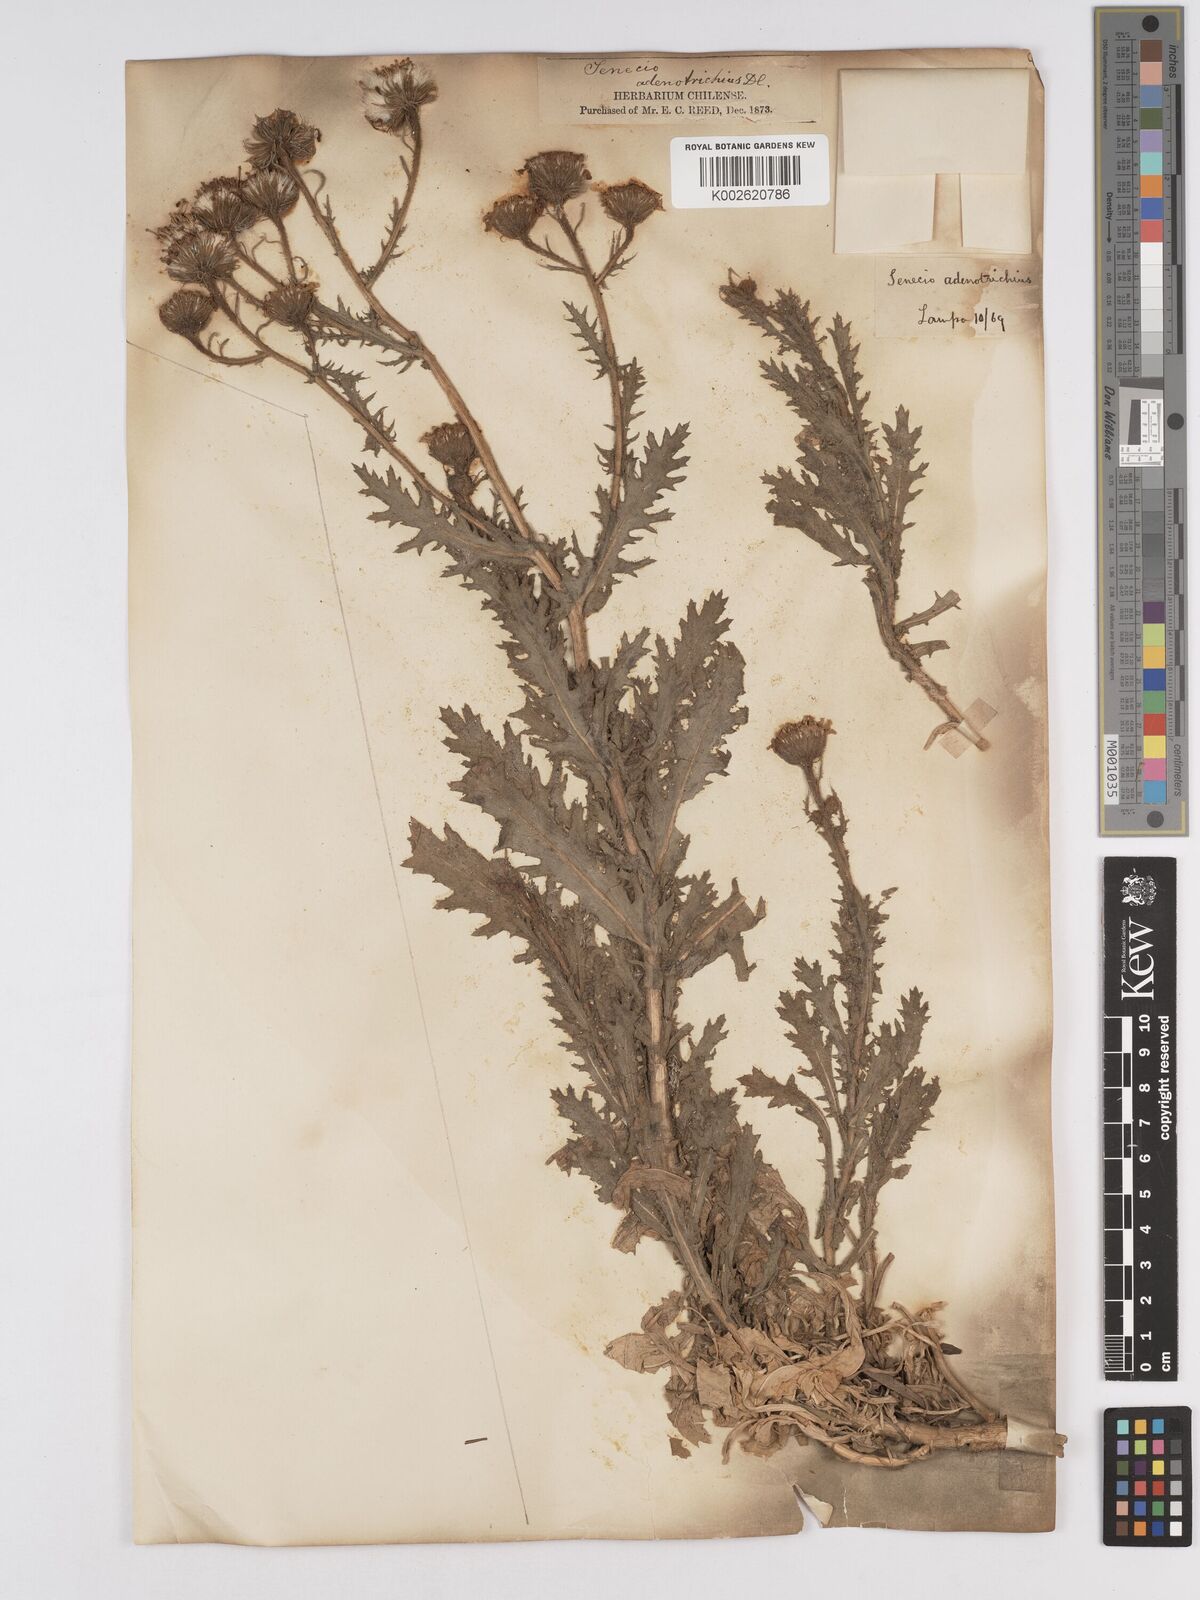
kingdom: Plantae
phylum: Tracheophyta
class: Magnoliopsida
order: Asterales
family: Asteraceae
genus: Senecio
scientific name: Senecio adenotrichius
